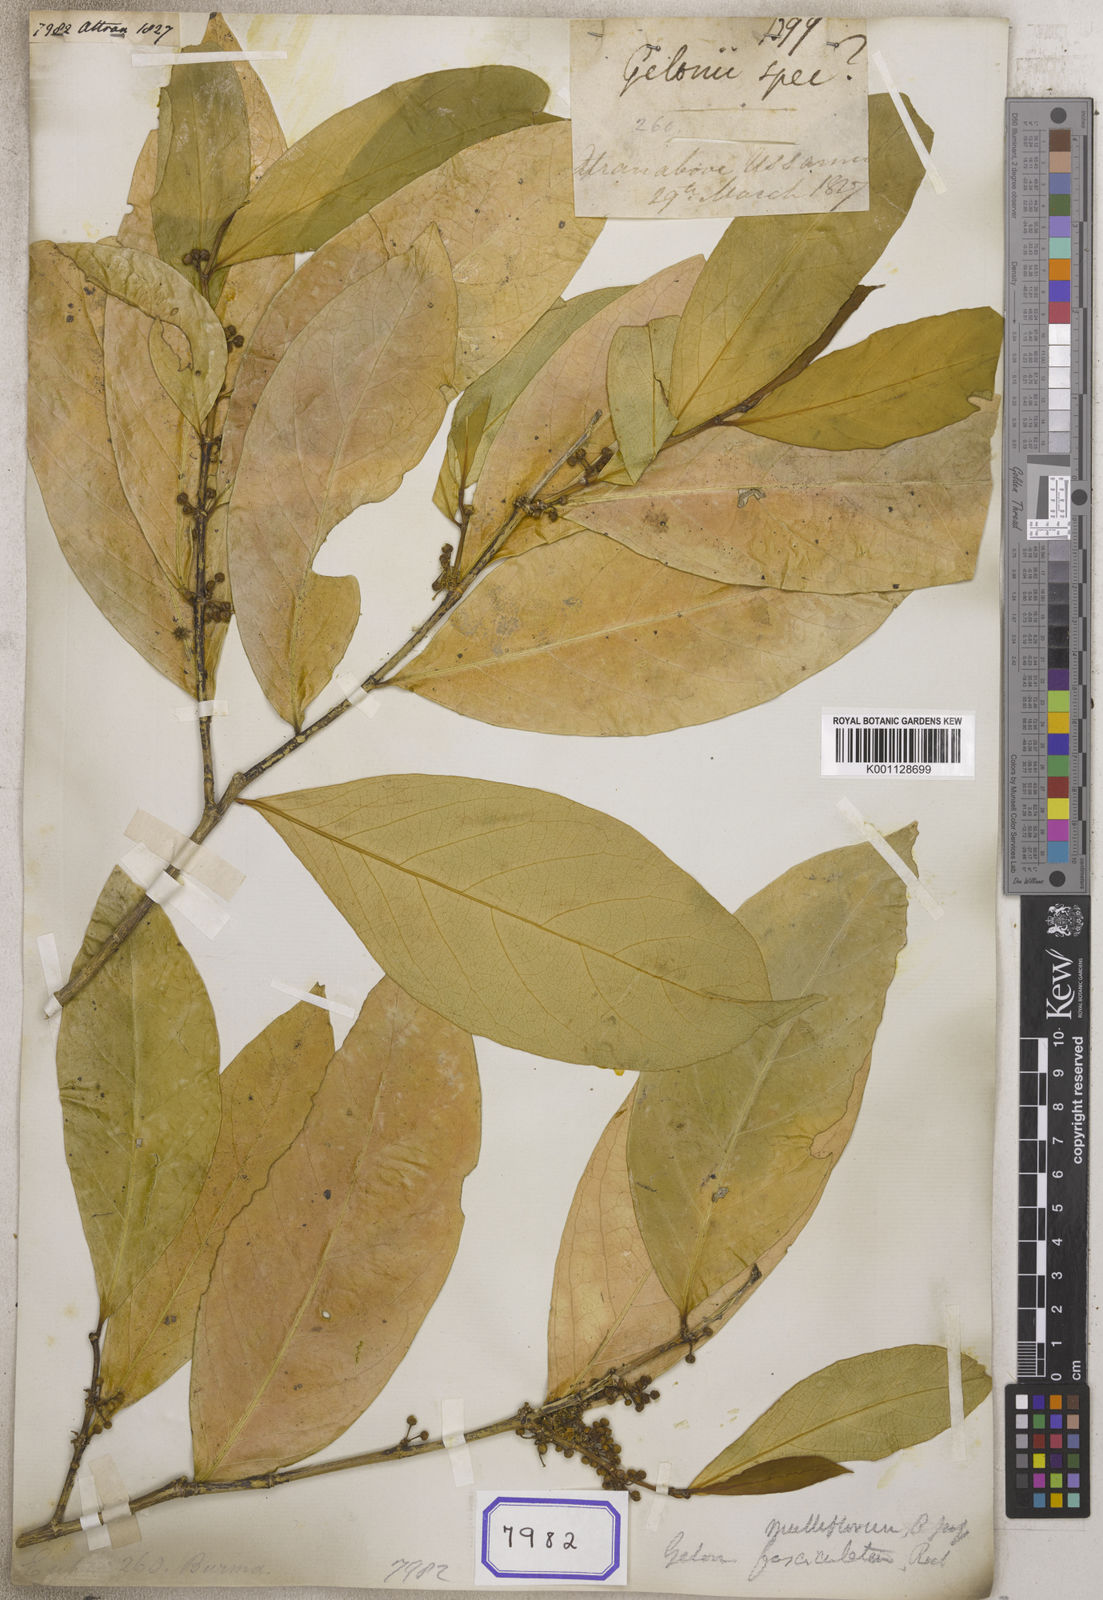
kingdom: Plantae
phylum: Tracheophyta
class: Magnoliopsida
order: Malpighiales
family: Euphorbiaceae
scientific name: Euphorbiaceae
